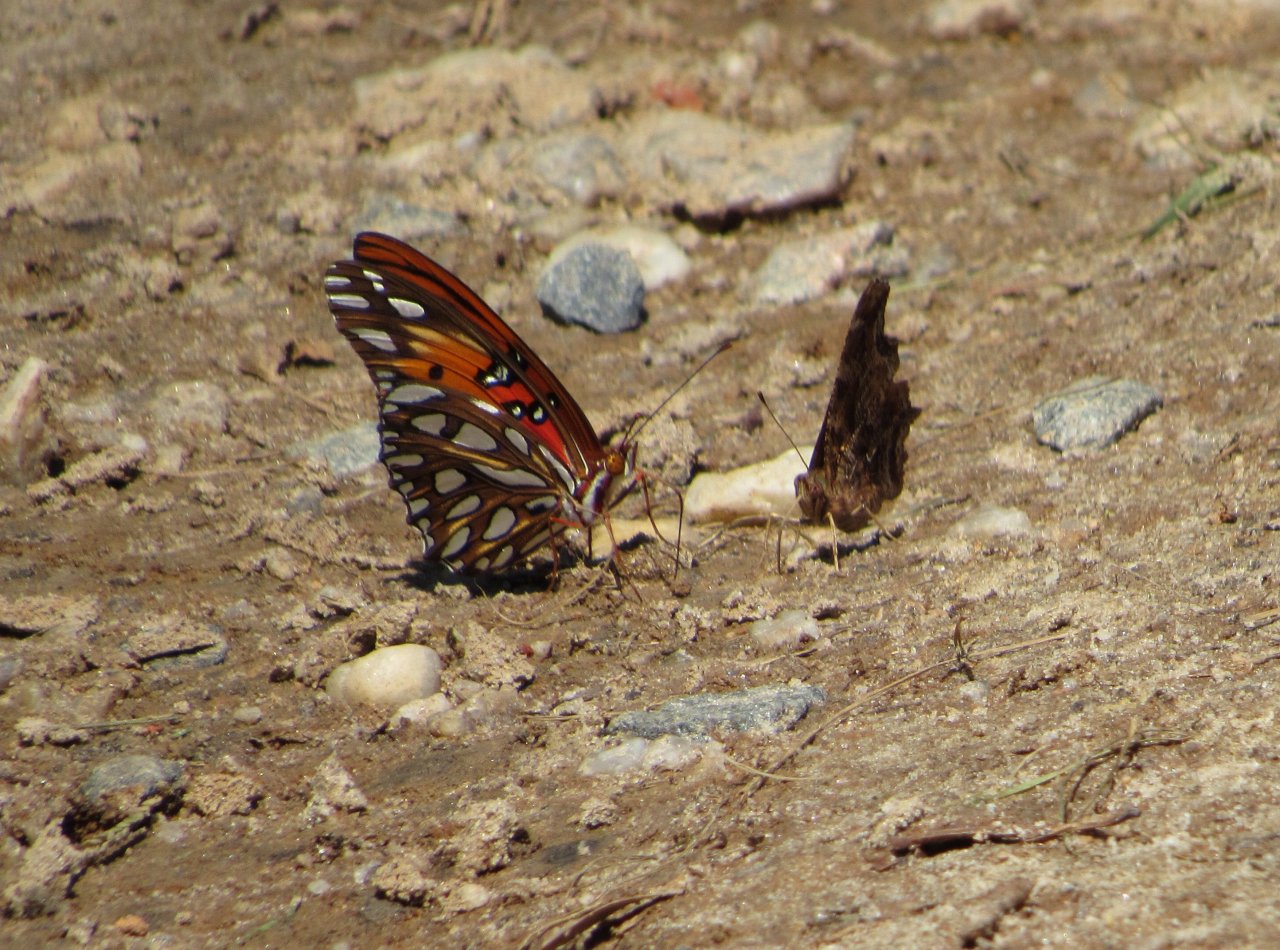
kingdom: Animalia
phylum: Arthropoda
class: Insecta
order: Lepidoptera
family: Nymphalidae
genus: Dione
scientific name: Dione vanillae
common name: Gulf Fritillary
